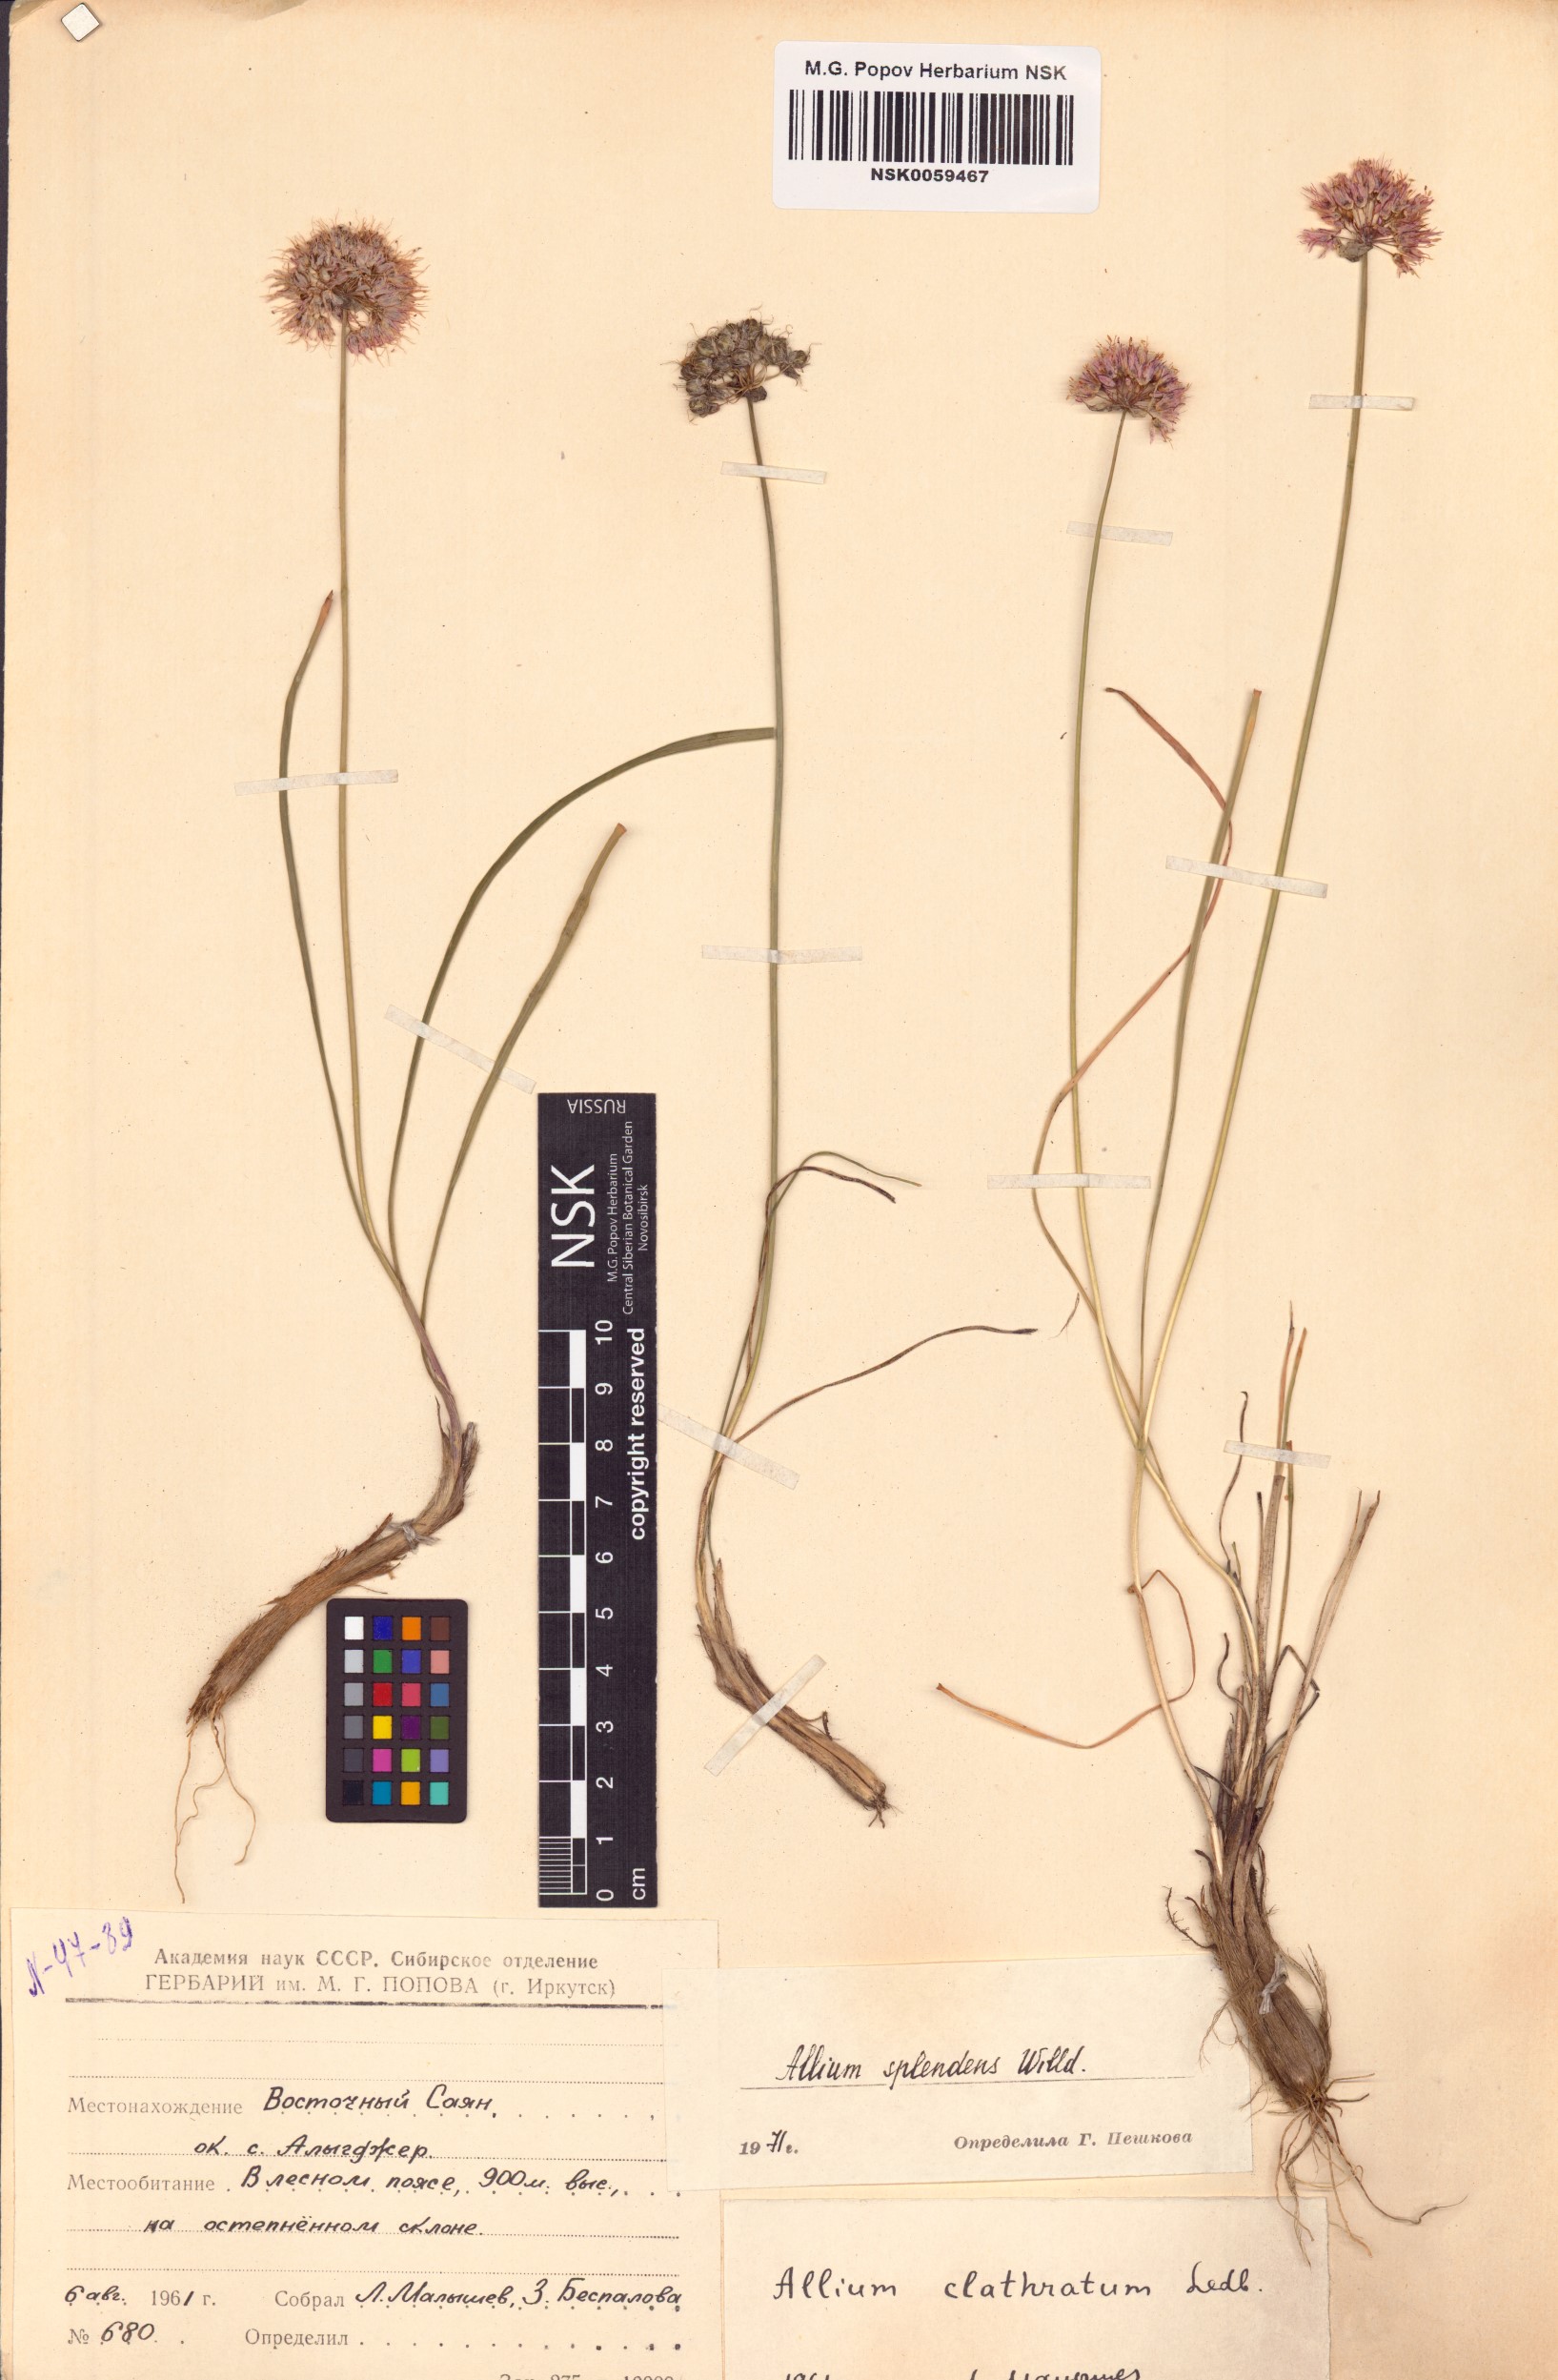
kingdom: Plantae
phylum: Tracheophyta
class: Liliopsida
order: Asparagales
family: Amaryllidaceae
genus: Allium
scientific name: Allium splendens
